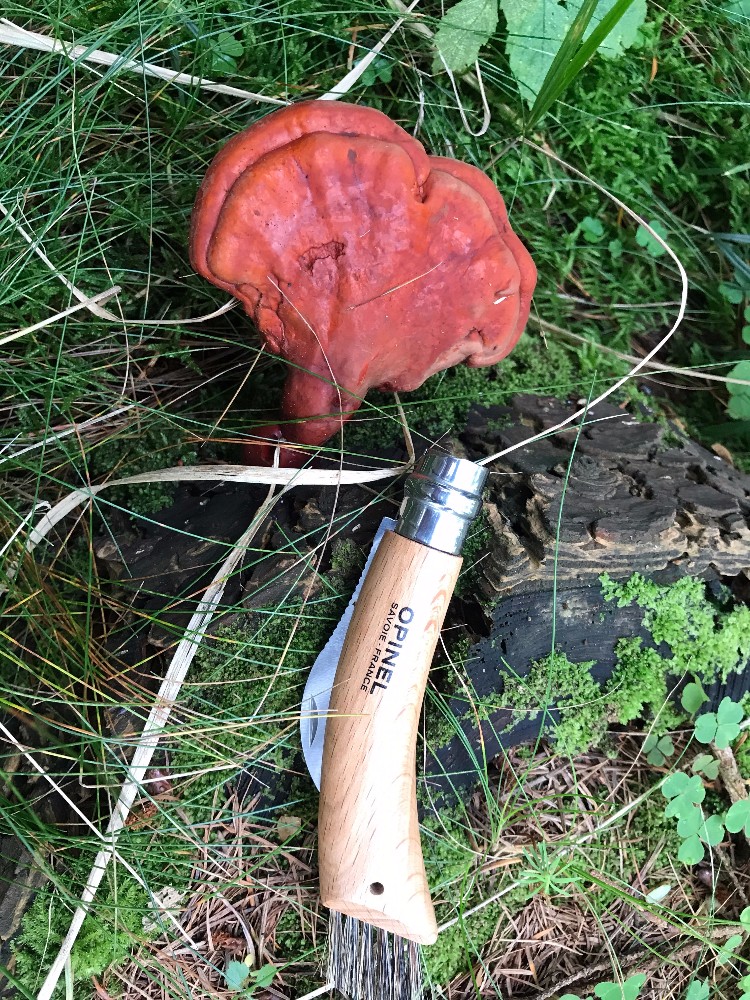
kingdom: Fungi
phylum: Basidiomycota
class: Agaricomycetes
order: Polyporales
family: Polyporaceae
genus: Ganoderma
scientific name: Ganoderma lucidum
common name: skinnende lakporesvamp
